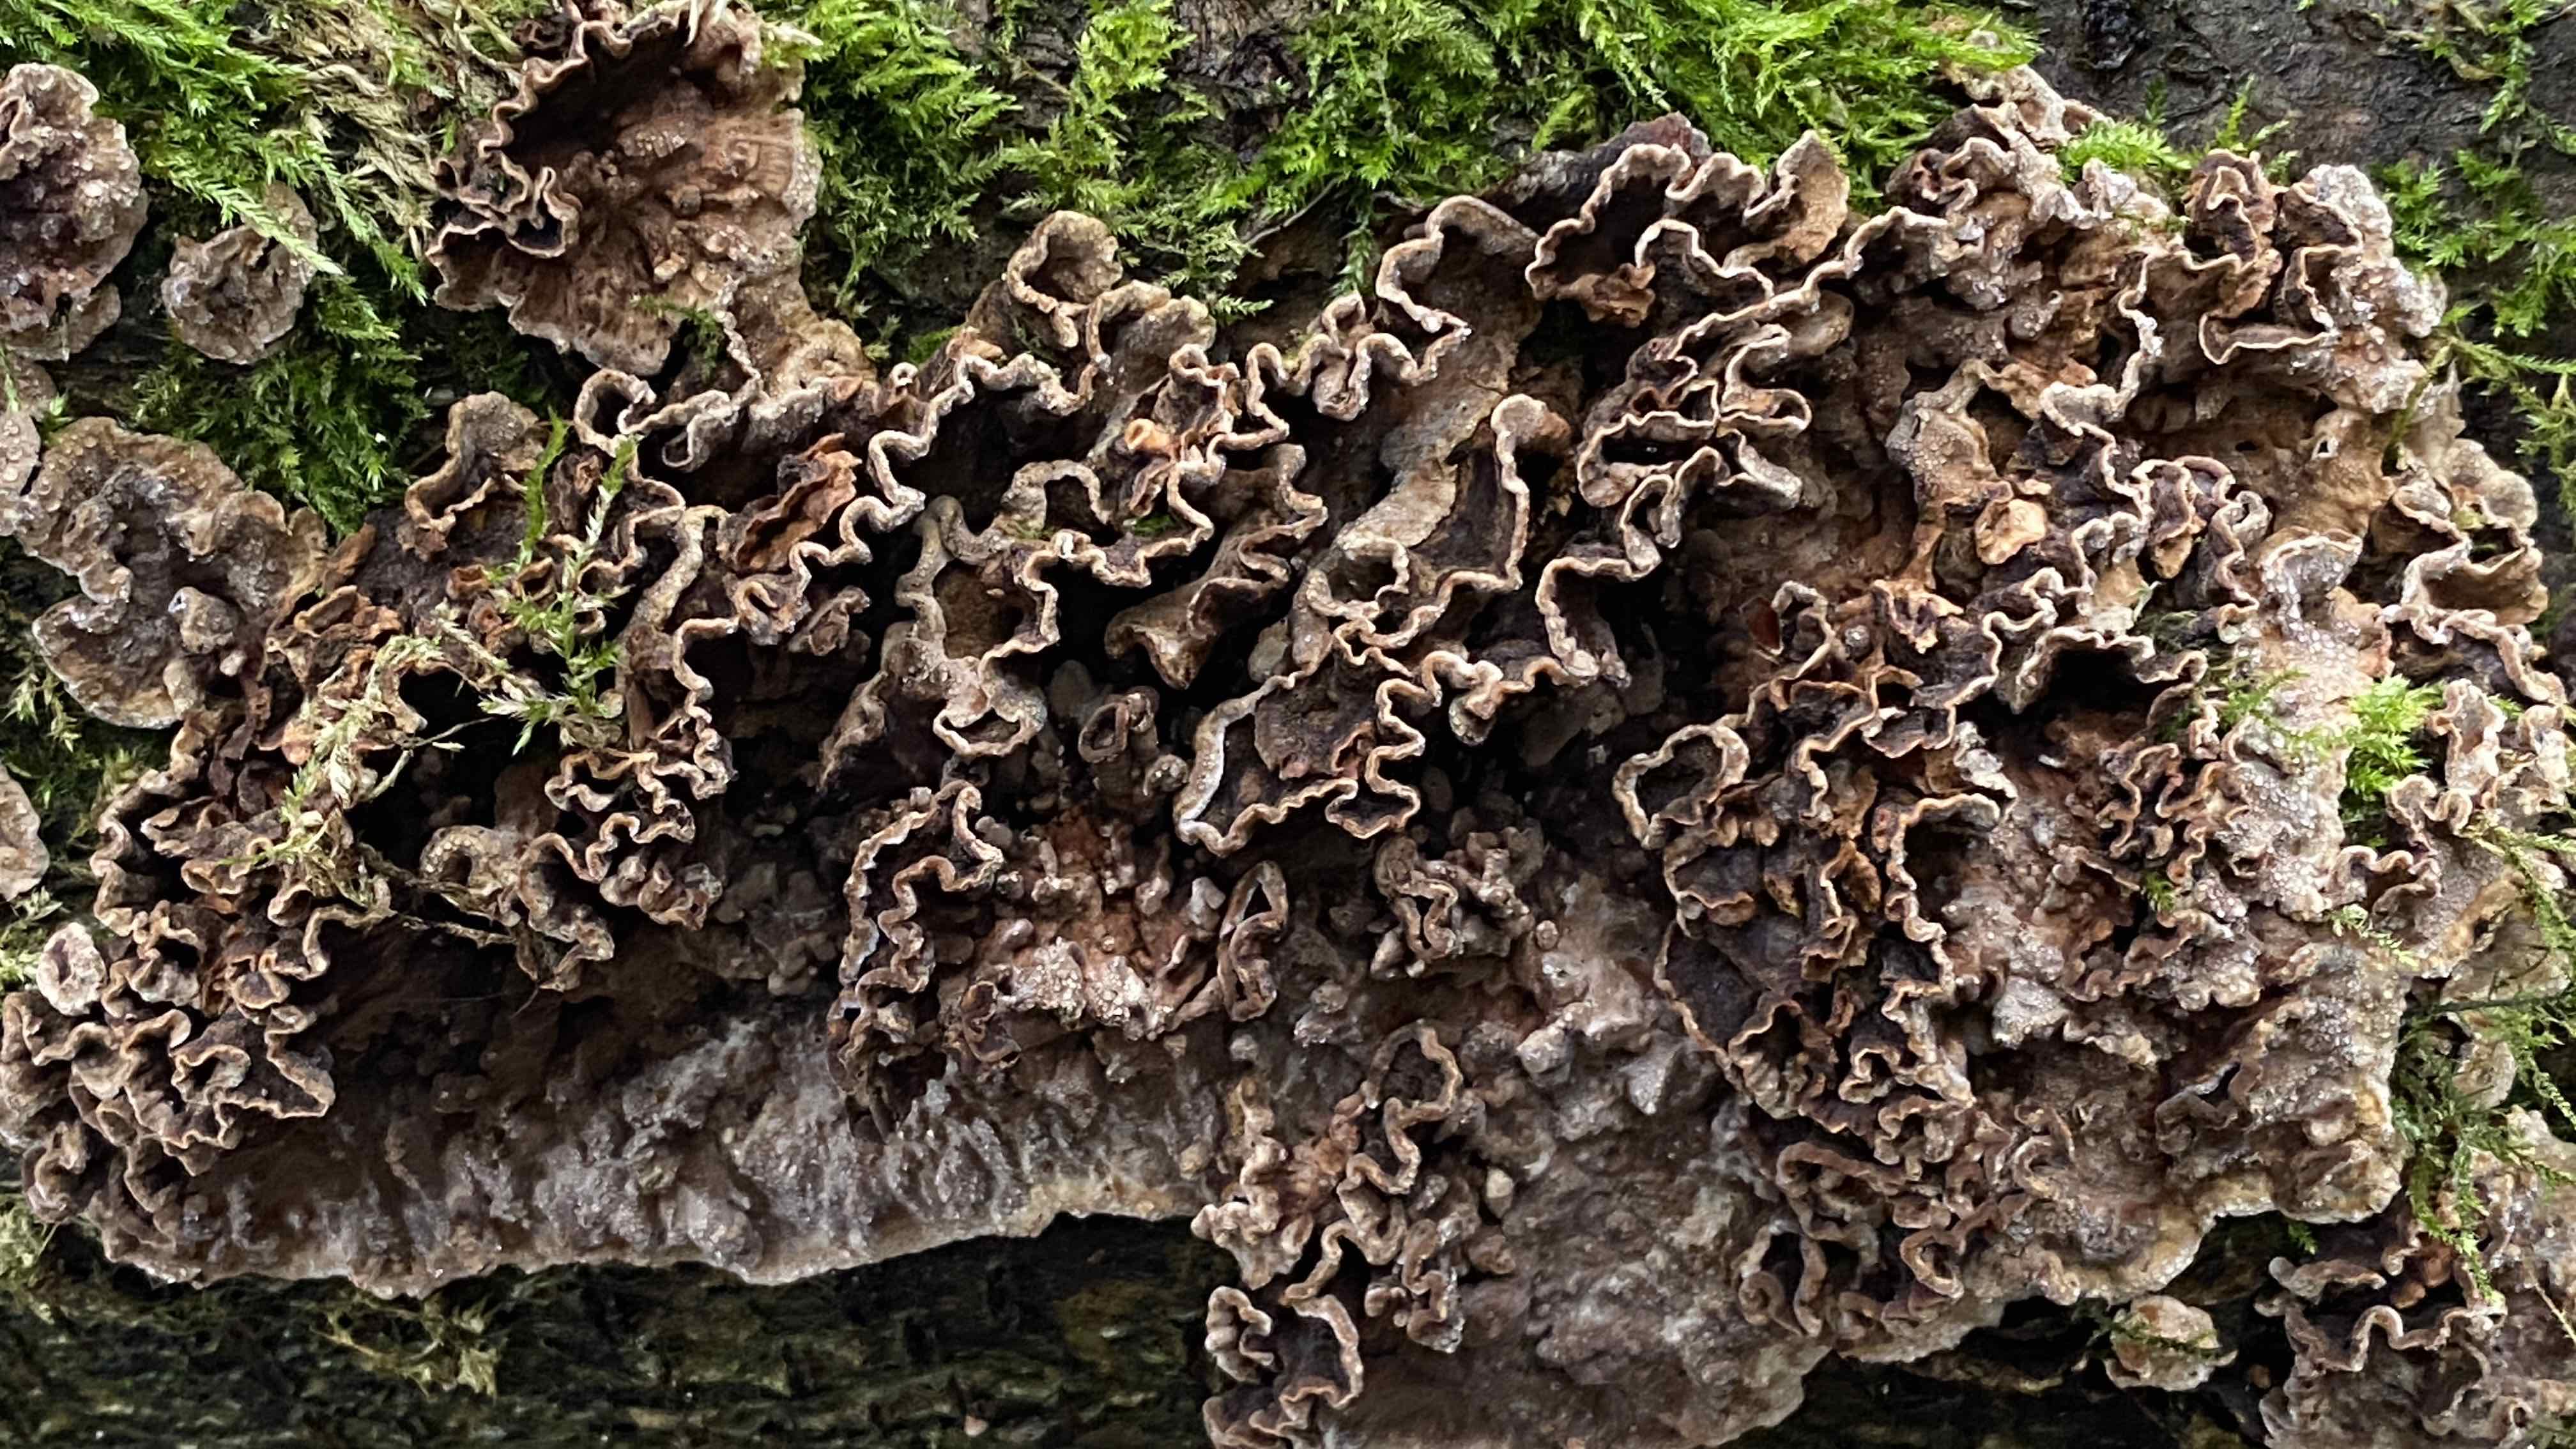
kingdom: Fungi
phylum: Basidiomycota
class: Agaricomycetes
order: Agaricales
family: Cyphellaceae
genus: Chondrostereum
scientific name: Chondrostereum purpureum
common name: purpurlædersvamp
